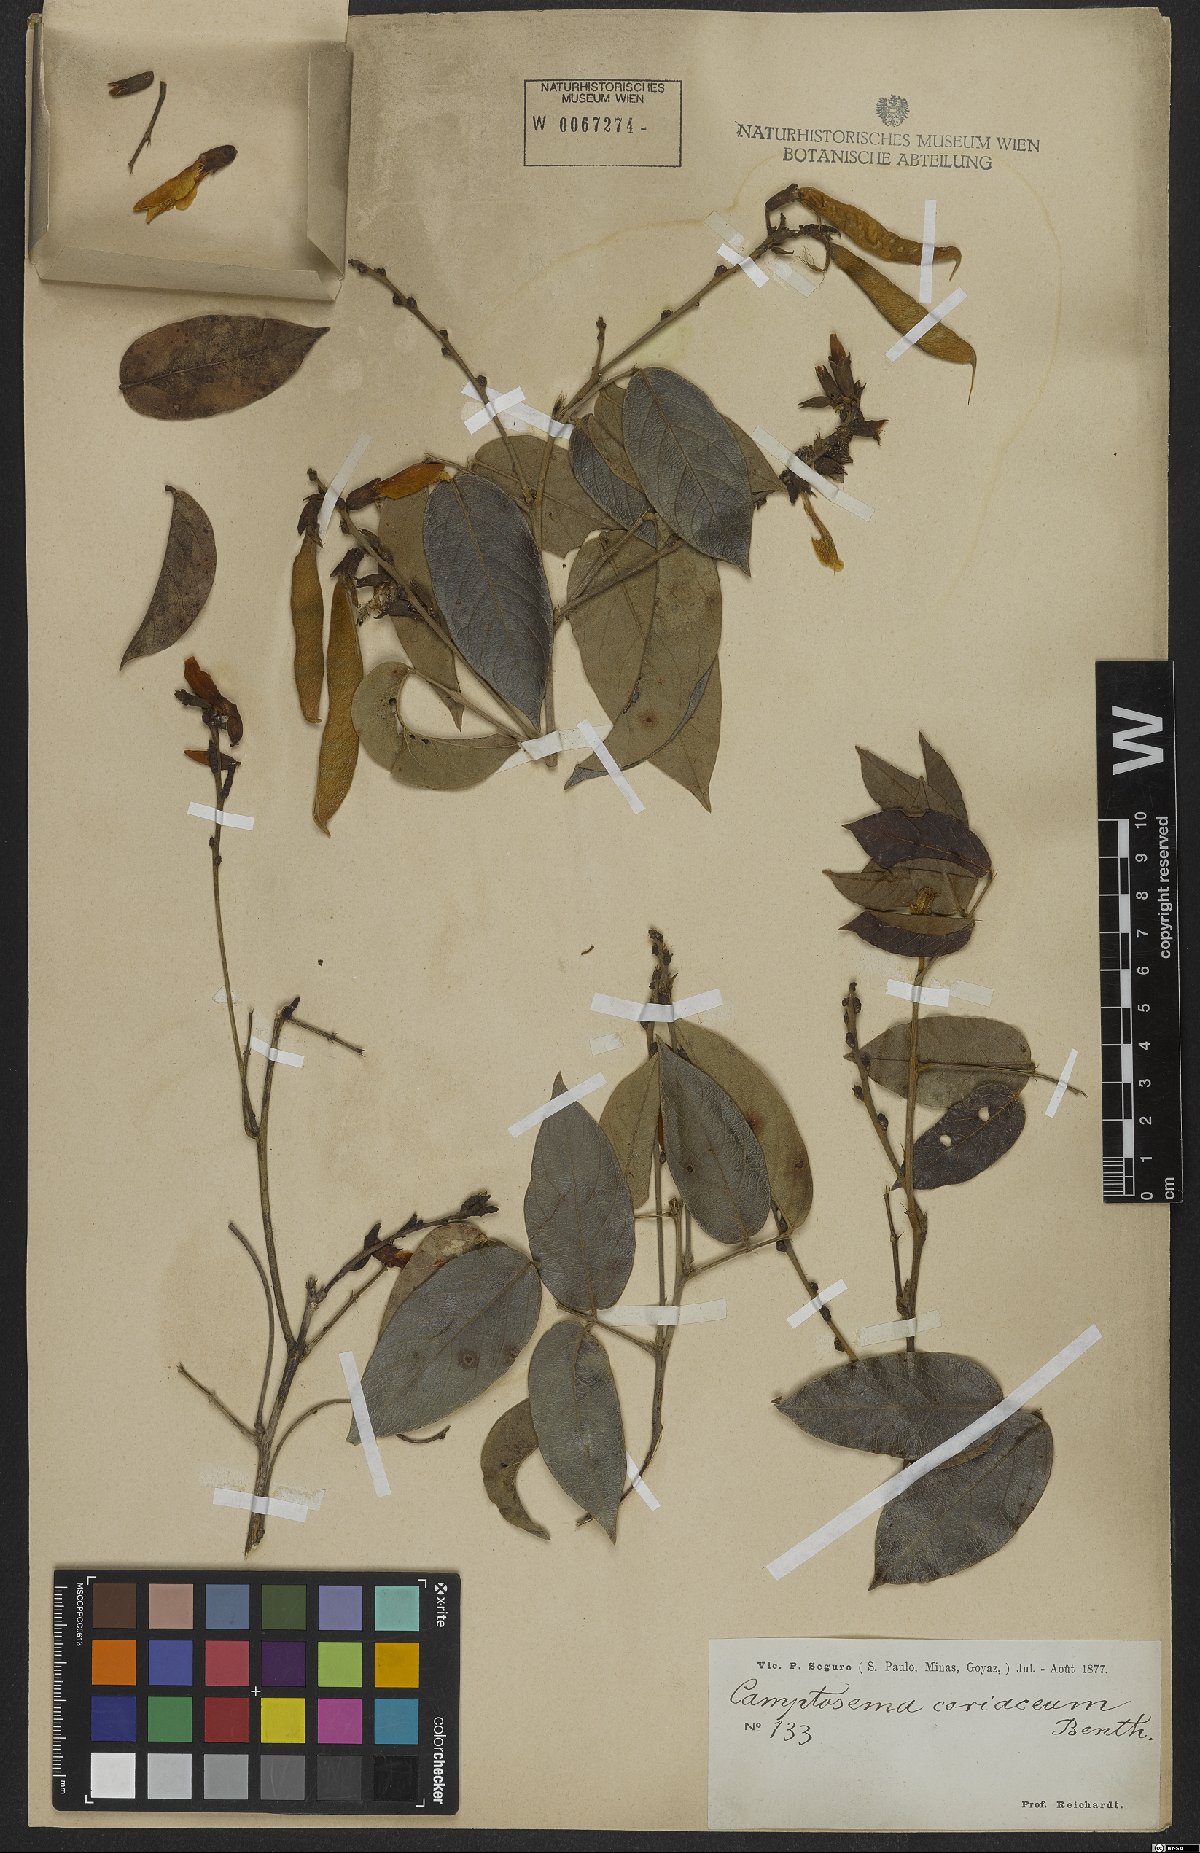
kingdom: Plantae
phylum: Tracheophyta
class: Magnoliopsida
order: Fabales
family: Fabaceae
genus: Camptosema
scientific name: Camptosema coriaceum
